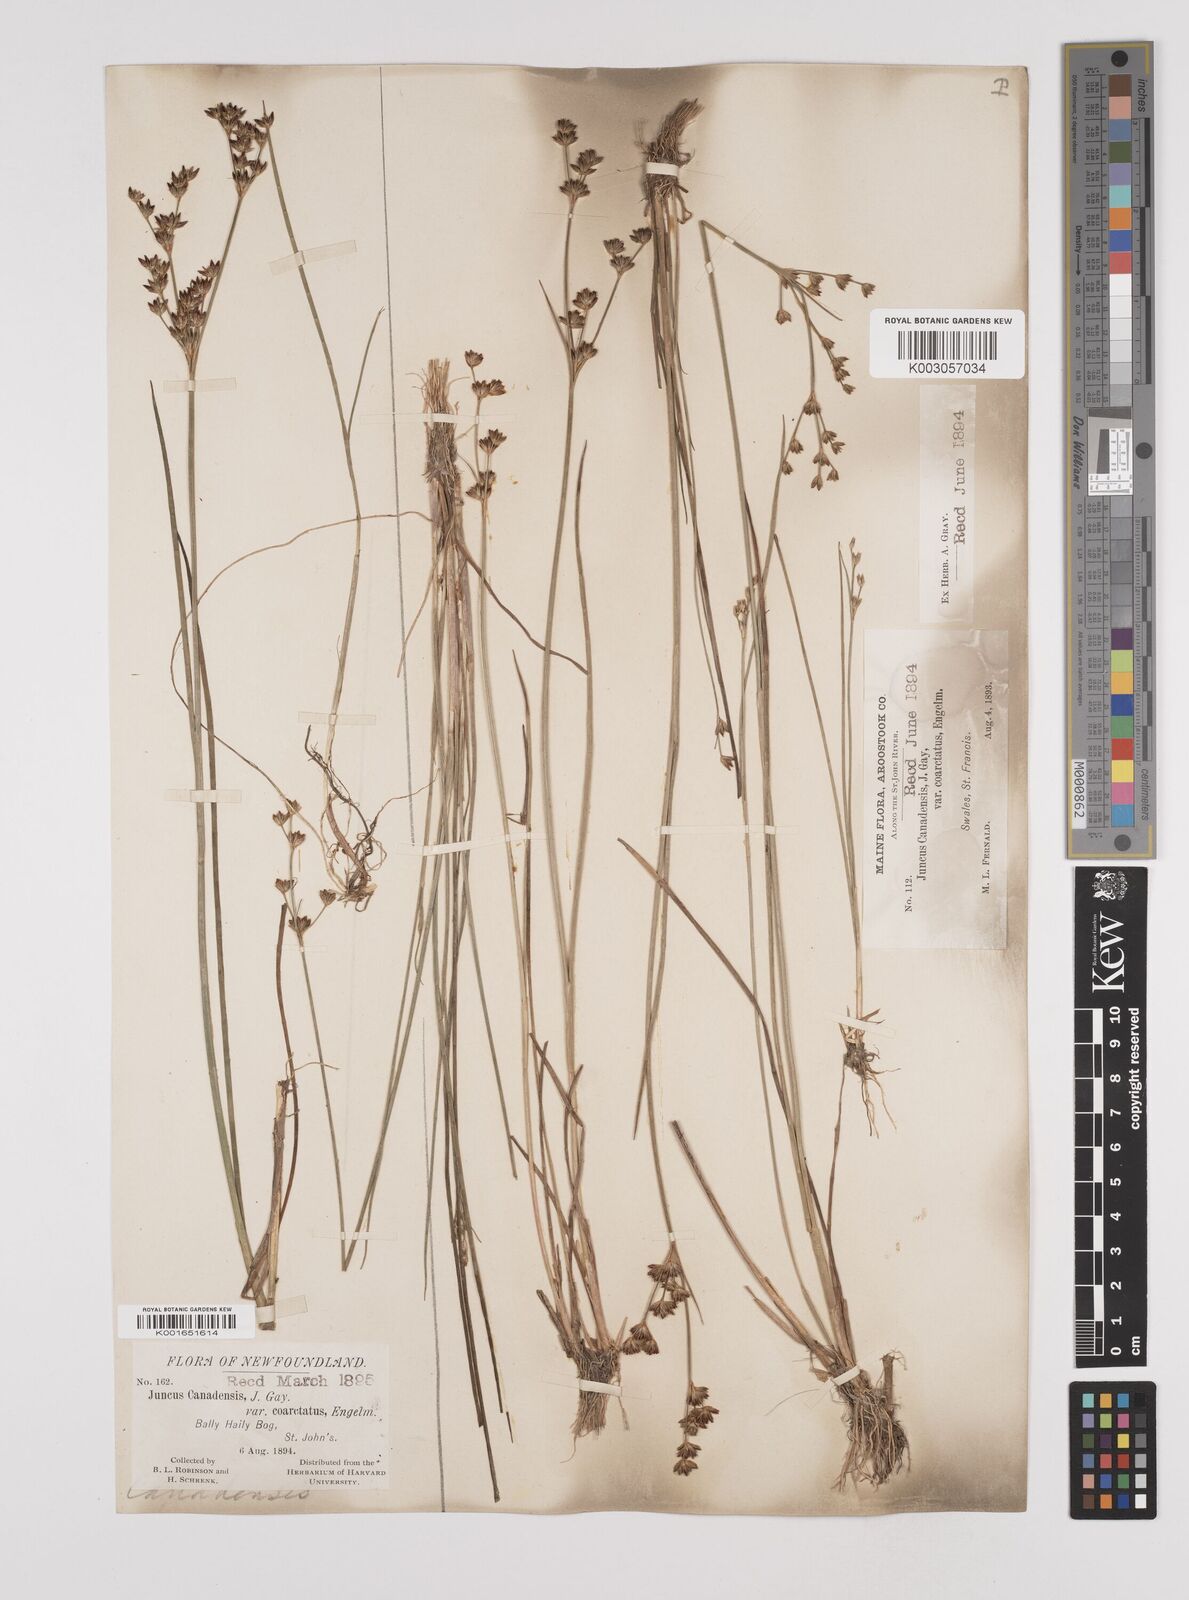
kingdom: Plantae
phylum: Tracheophyta
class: Liliopsida
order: Poales
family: Juncaceae
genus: Juncus
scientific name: Juncus canadensis
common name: Canada rush
